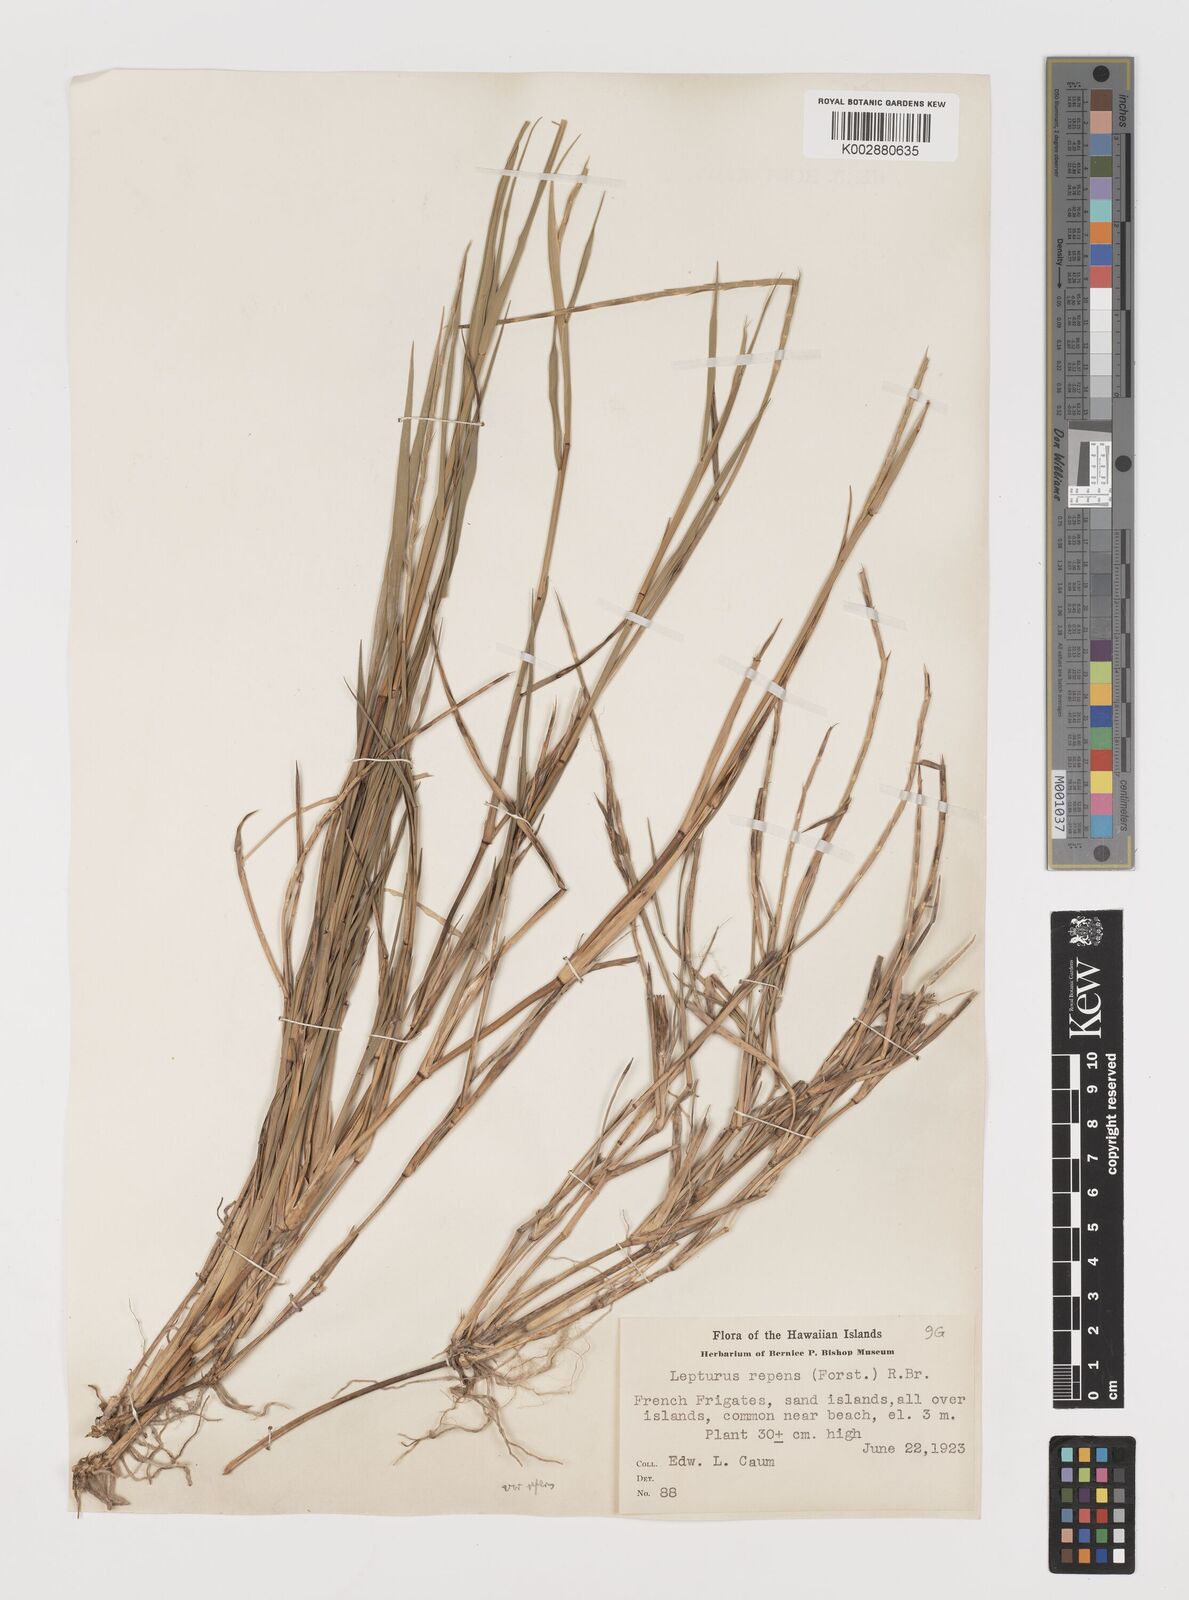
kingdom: Plantae
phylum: Tracheophyta
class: Liliopsida
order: Poales
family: Poaceae
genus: Lepturus
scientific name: Lepturus repens
